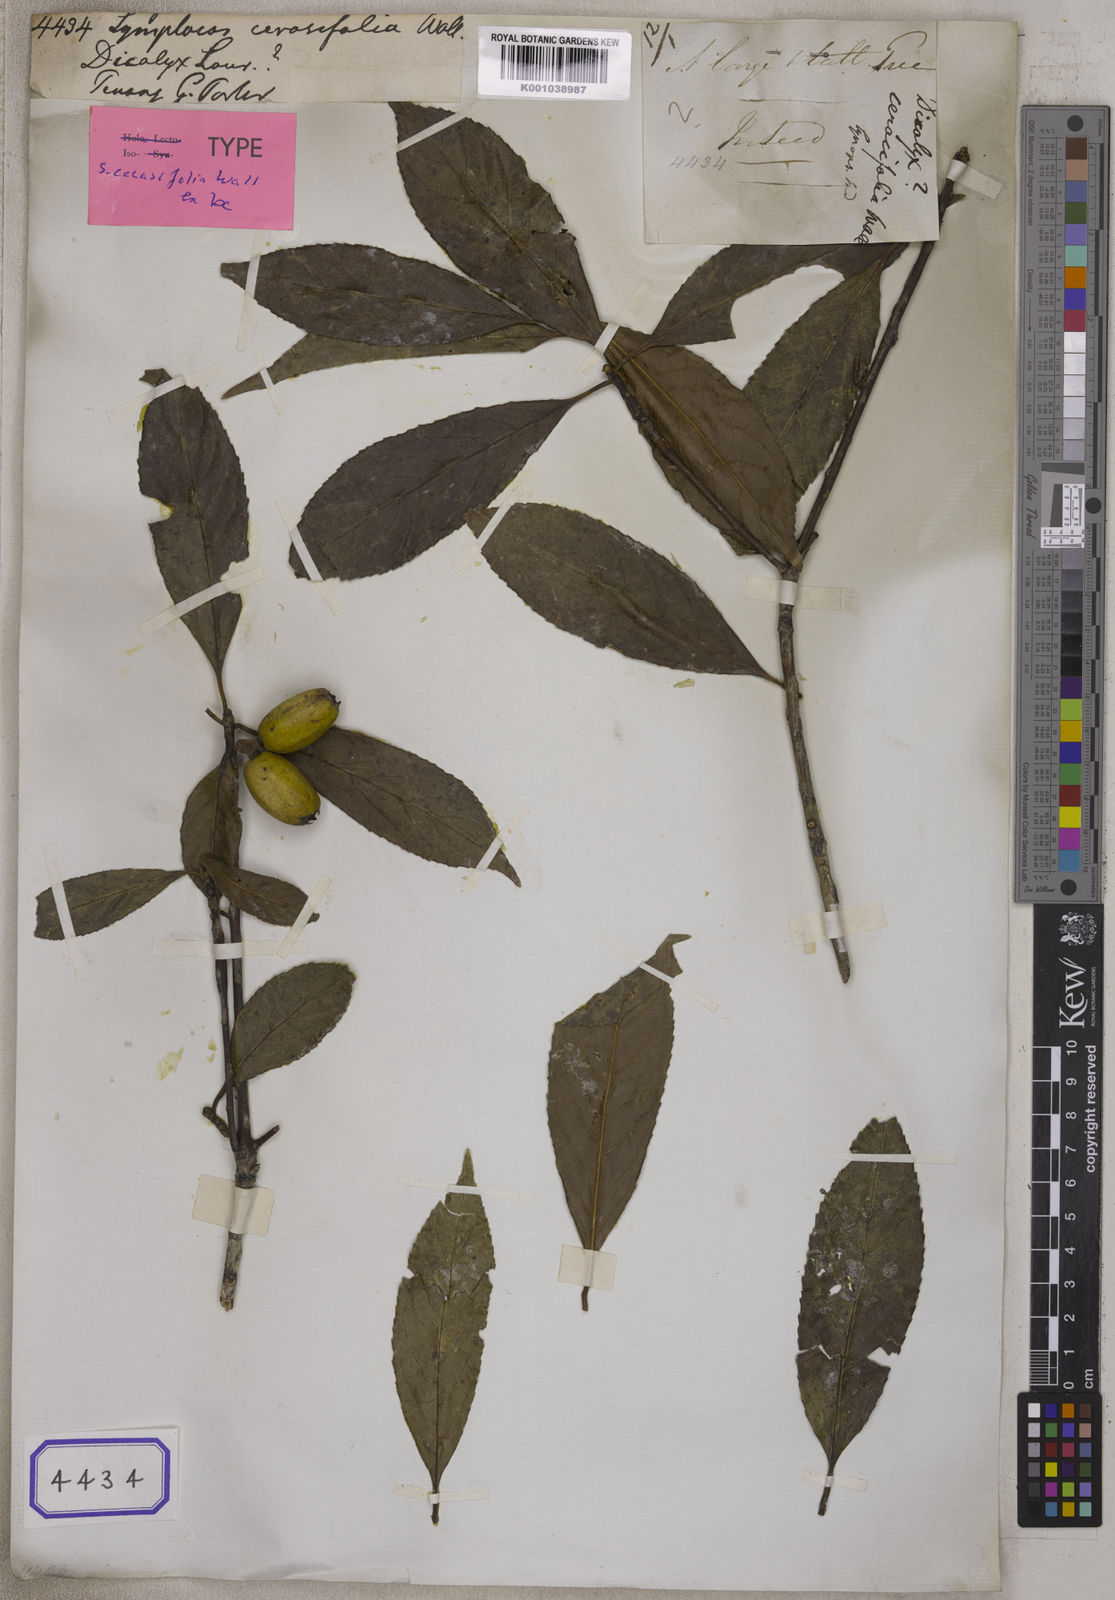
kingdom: Plantae
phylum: Tracheophyta
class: Magnoliopsida
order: Ericales
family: Symplocaceae
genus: Symplocos
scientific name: Symplocos
